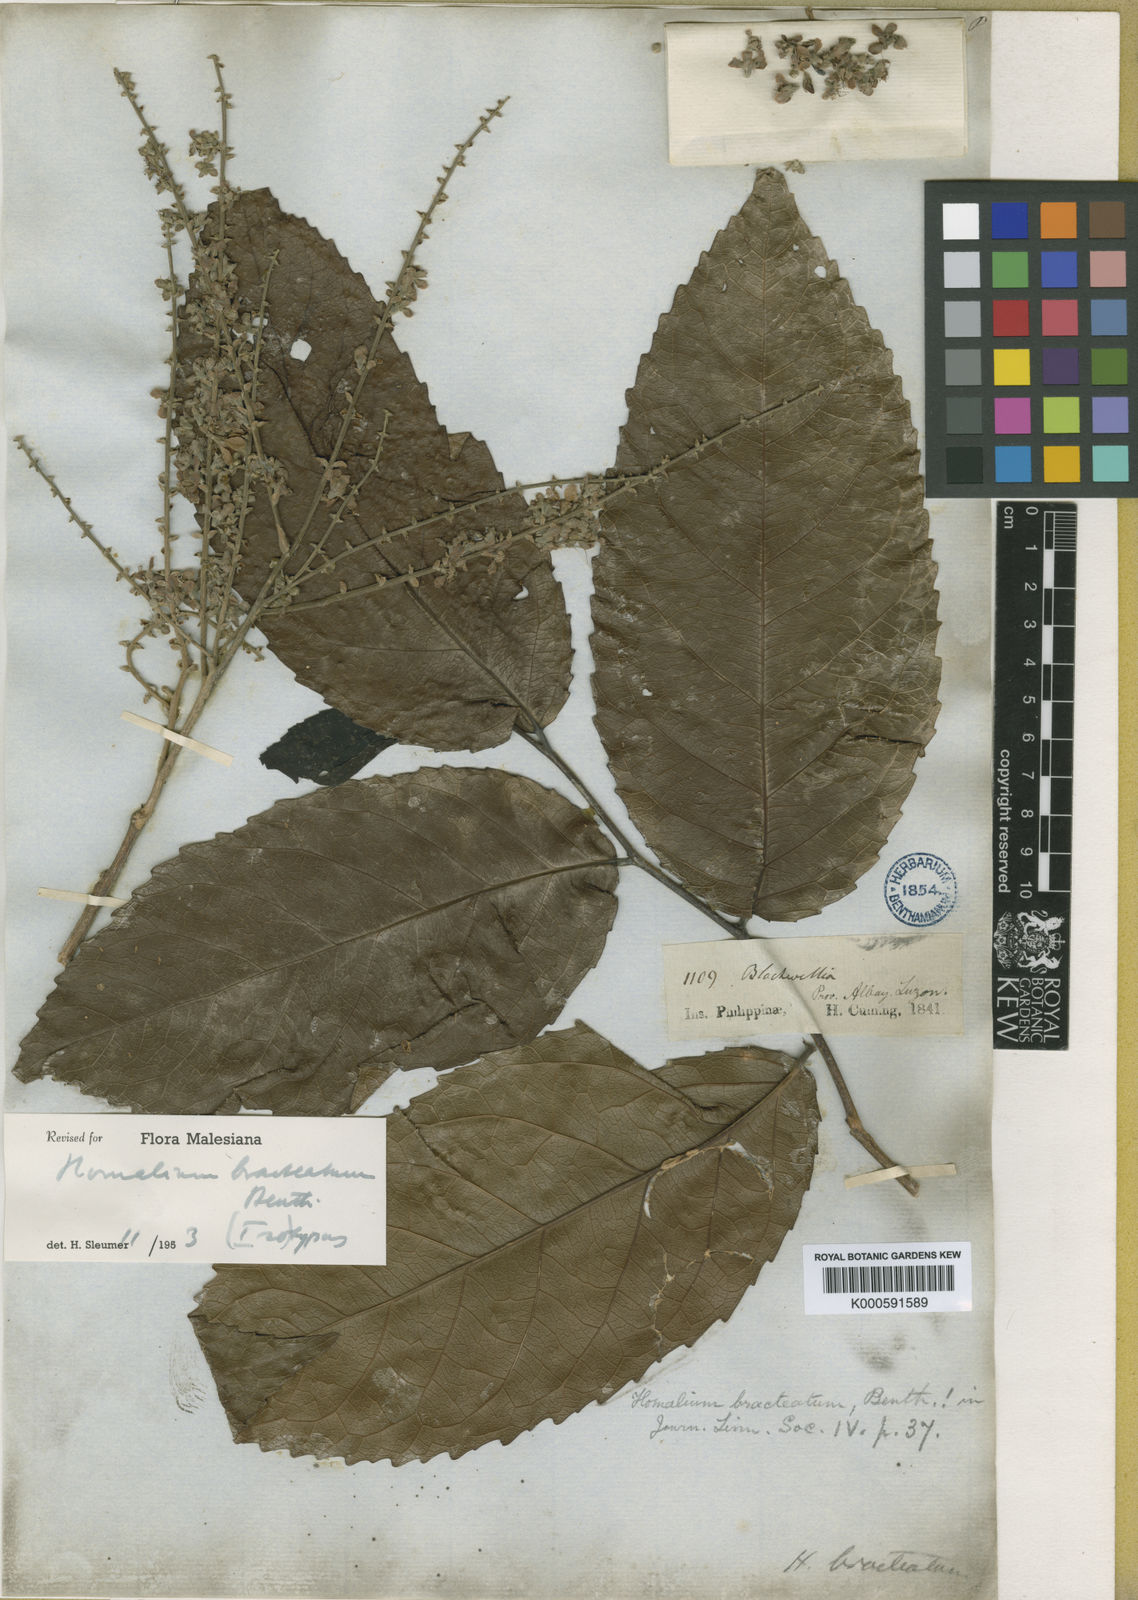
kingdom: Plantae
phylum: Tracheophyta
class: Magnoliopsida
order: Malpighiales
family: Salicaceae
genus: Homalium
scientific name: Homalium bracteatum
